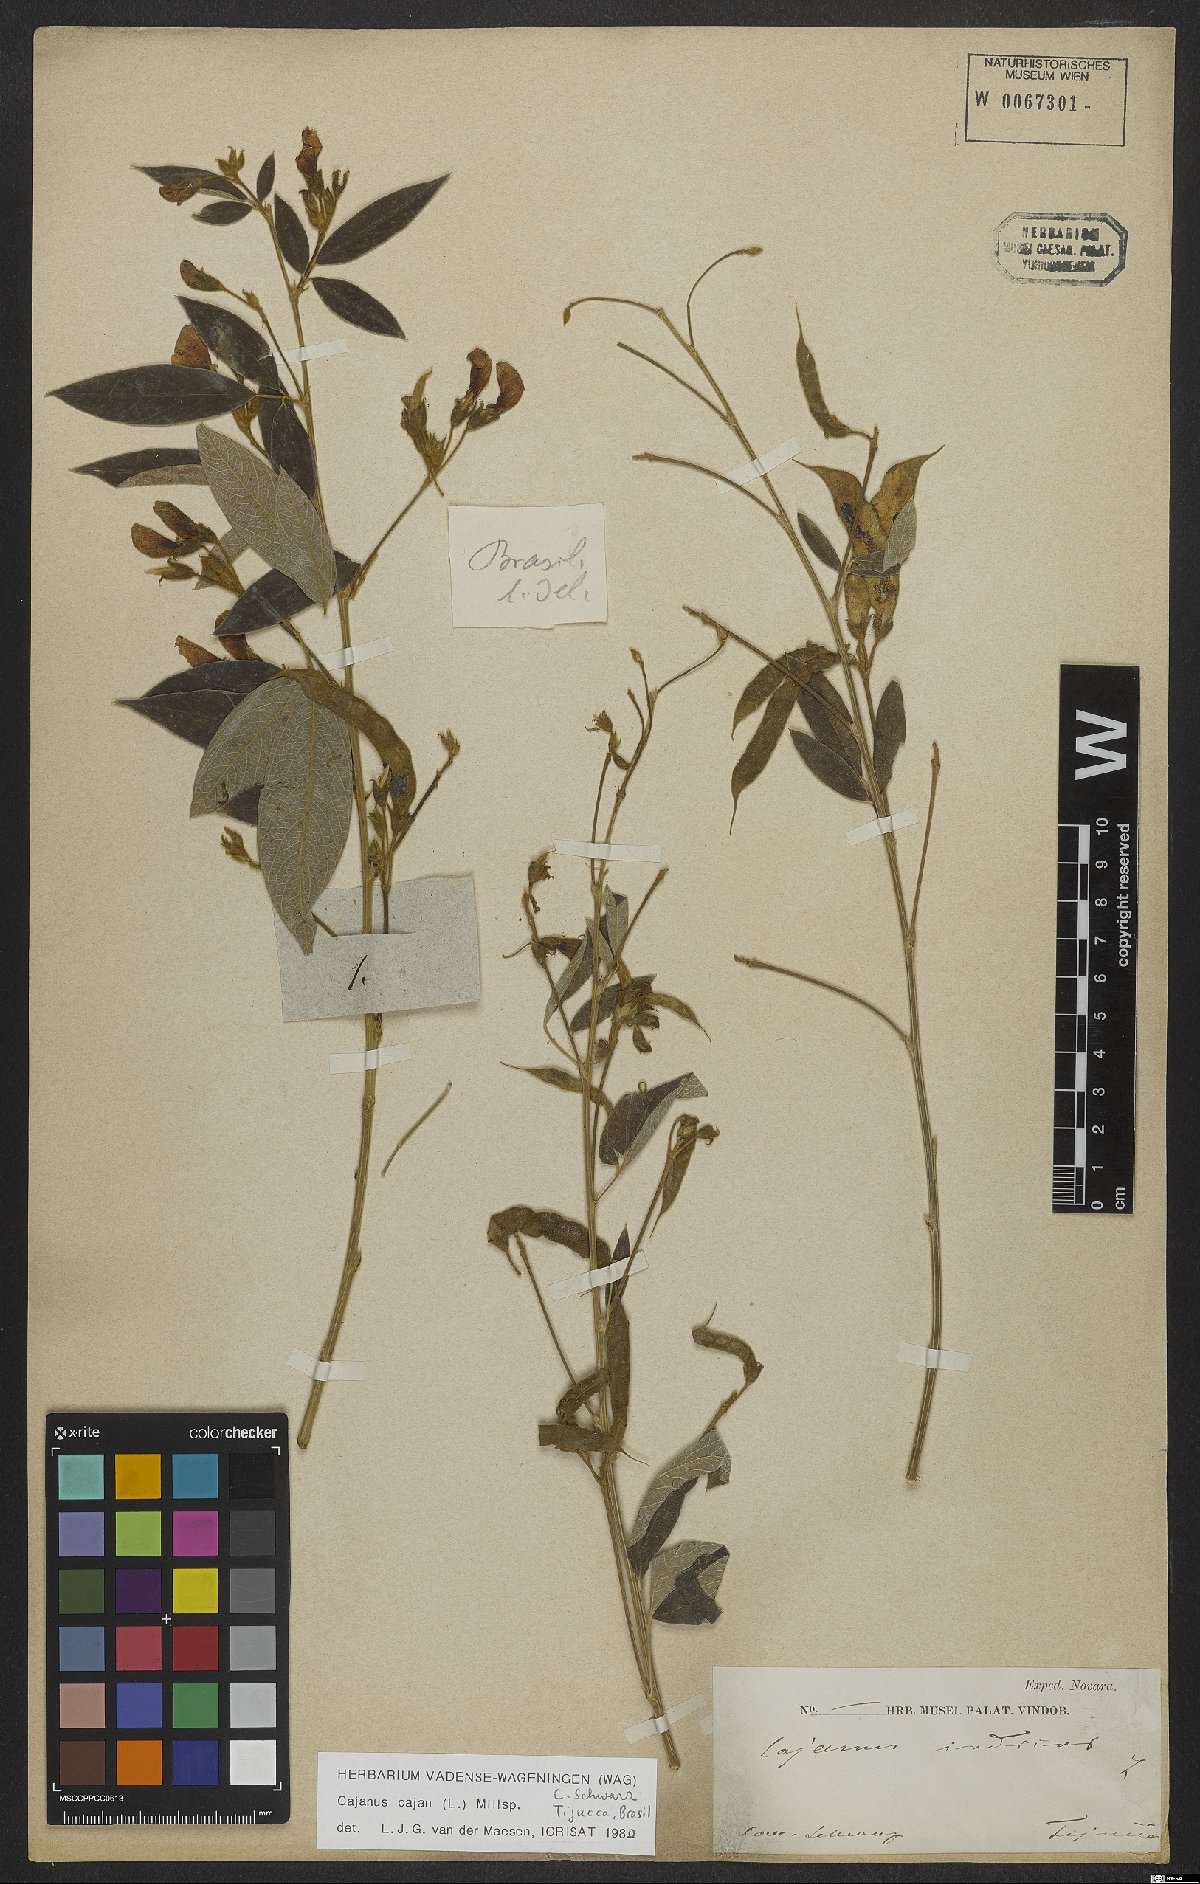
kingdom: Plantae
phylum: Tracheophyta
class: Magnoliopsida
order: Fabales
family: Fabaceae
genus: Cajanus
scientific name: Cajanus cajan
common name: Pigeonpea
